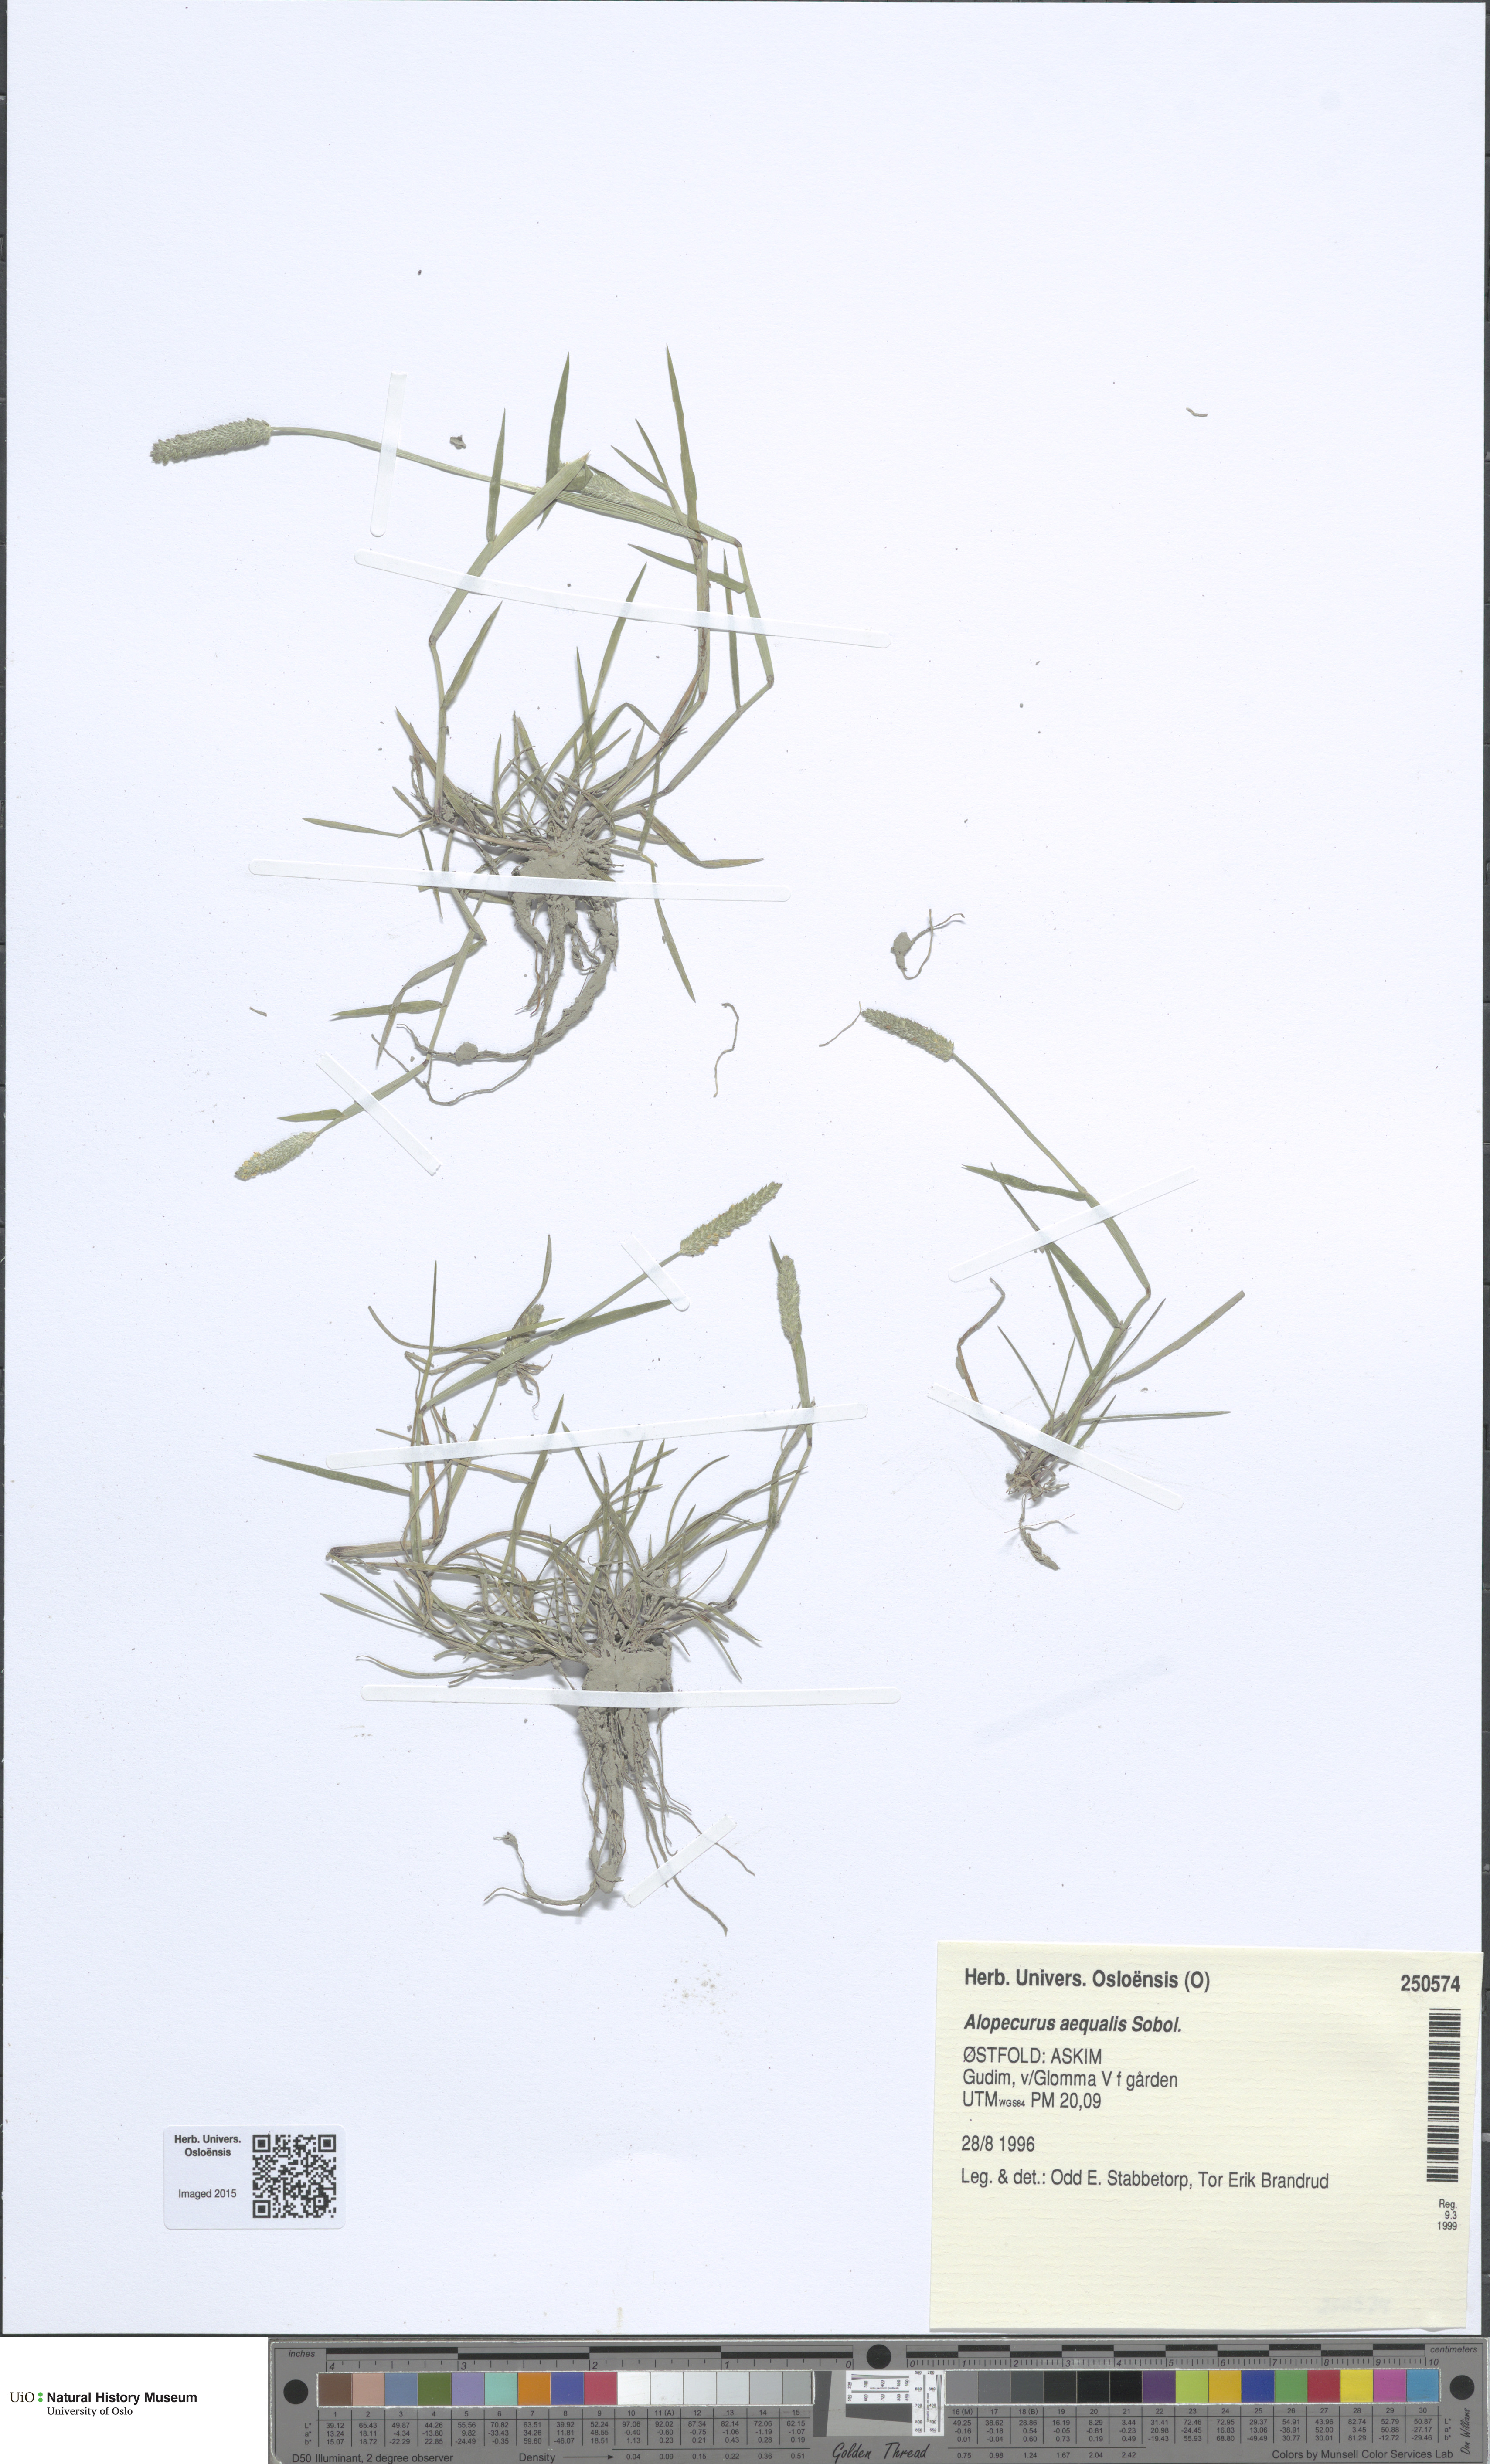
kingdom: Plantae
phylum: Tracheophyta
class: Liliopsida
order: Poales
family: Poaceae
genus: Alopecurus
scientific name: Alopecurus aequalis
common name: Orange foxtail
